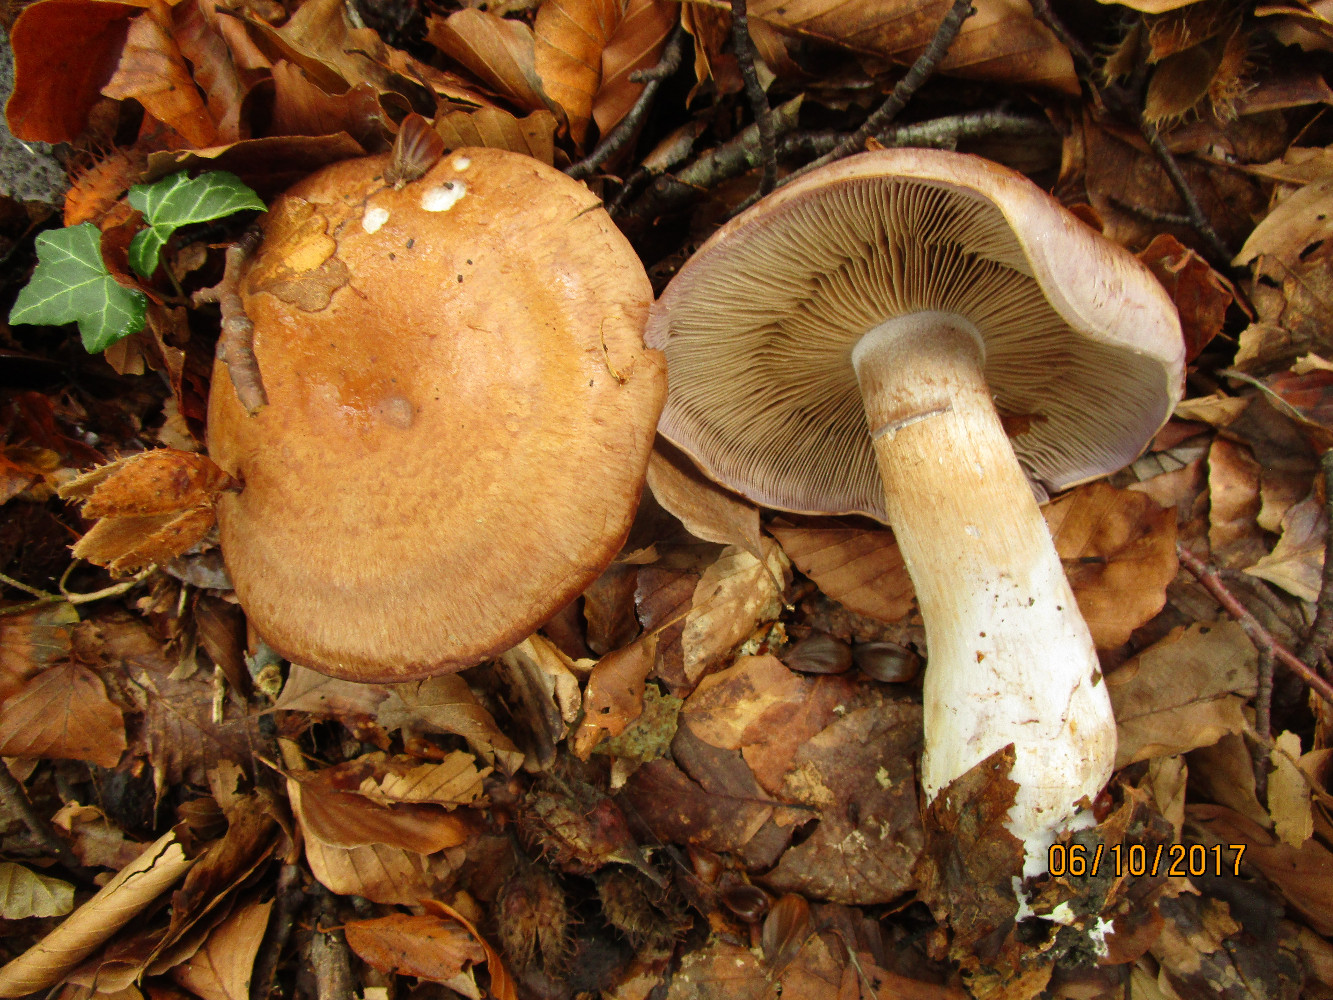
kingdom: Fungi
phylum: Basidiomycota
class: Agaricomycetes
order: Agaricales
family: Cortinariaceae
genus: Cortinarius
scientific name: Cortinarius largus
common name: violetrandet slørhat
